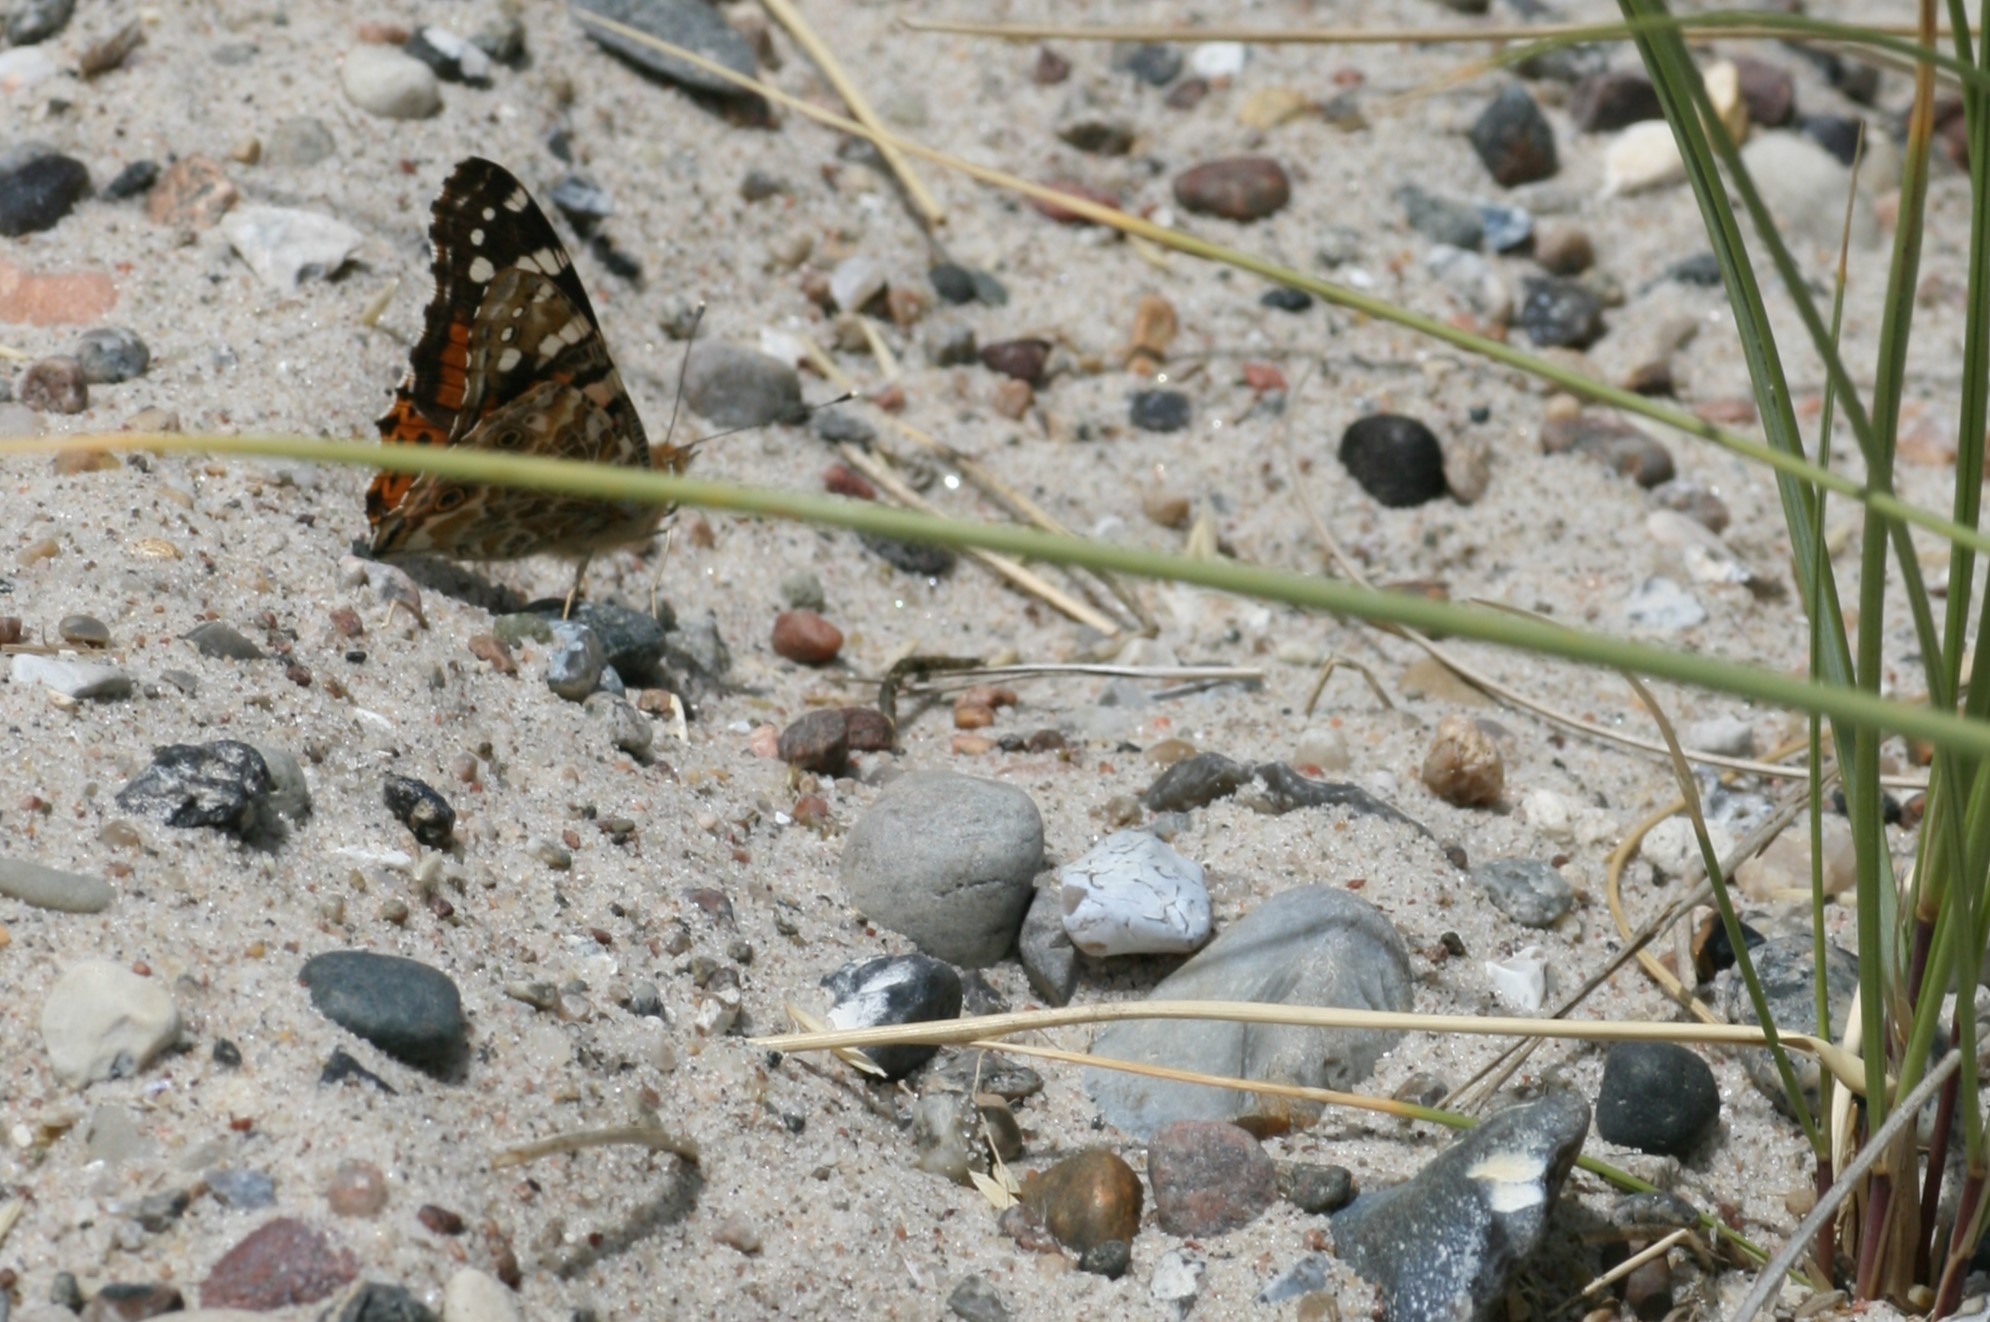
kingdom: Animalia
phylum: Arthropoda
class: Insecta
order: Lepidoptera
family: Nymphalidae
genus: Vanessa
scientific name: Vanessa cardui
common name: Tidselsommerfugl
